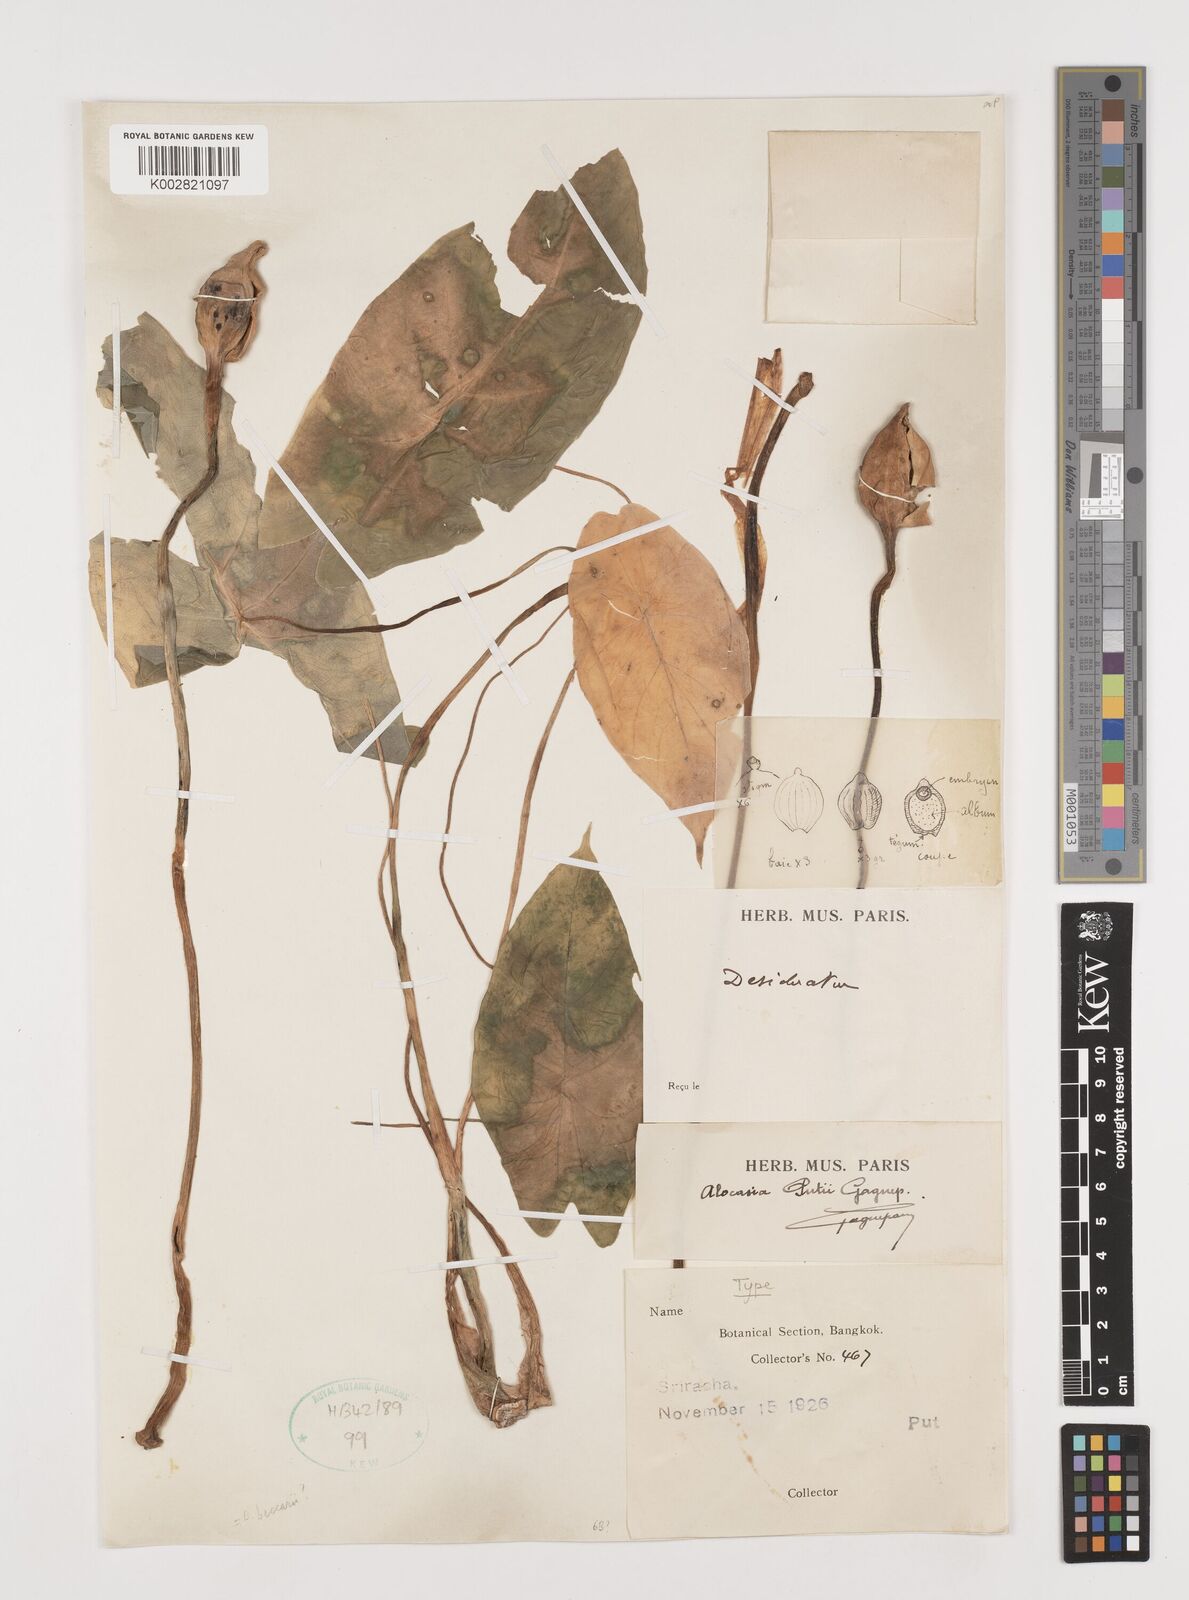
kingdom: Plantae
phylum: Tracheophyta
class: Liliopsida
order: Alismatales
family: Araceae
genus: Alocasia
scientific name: Alocasia putii
